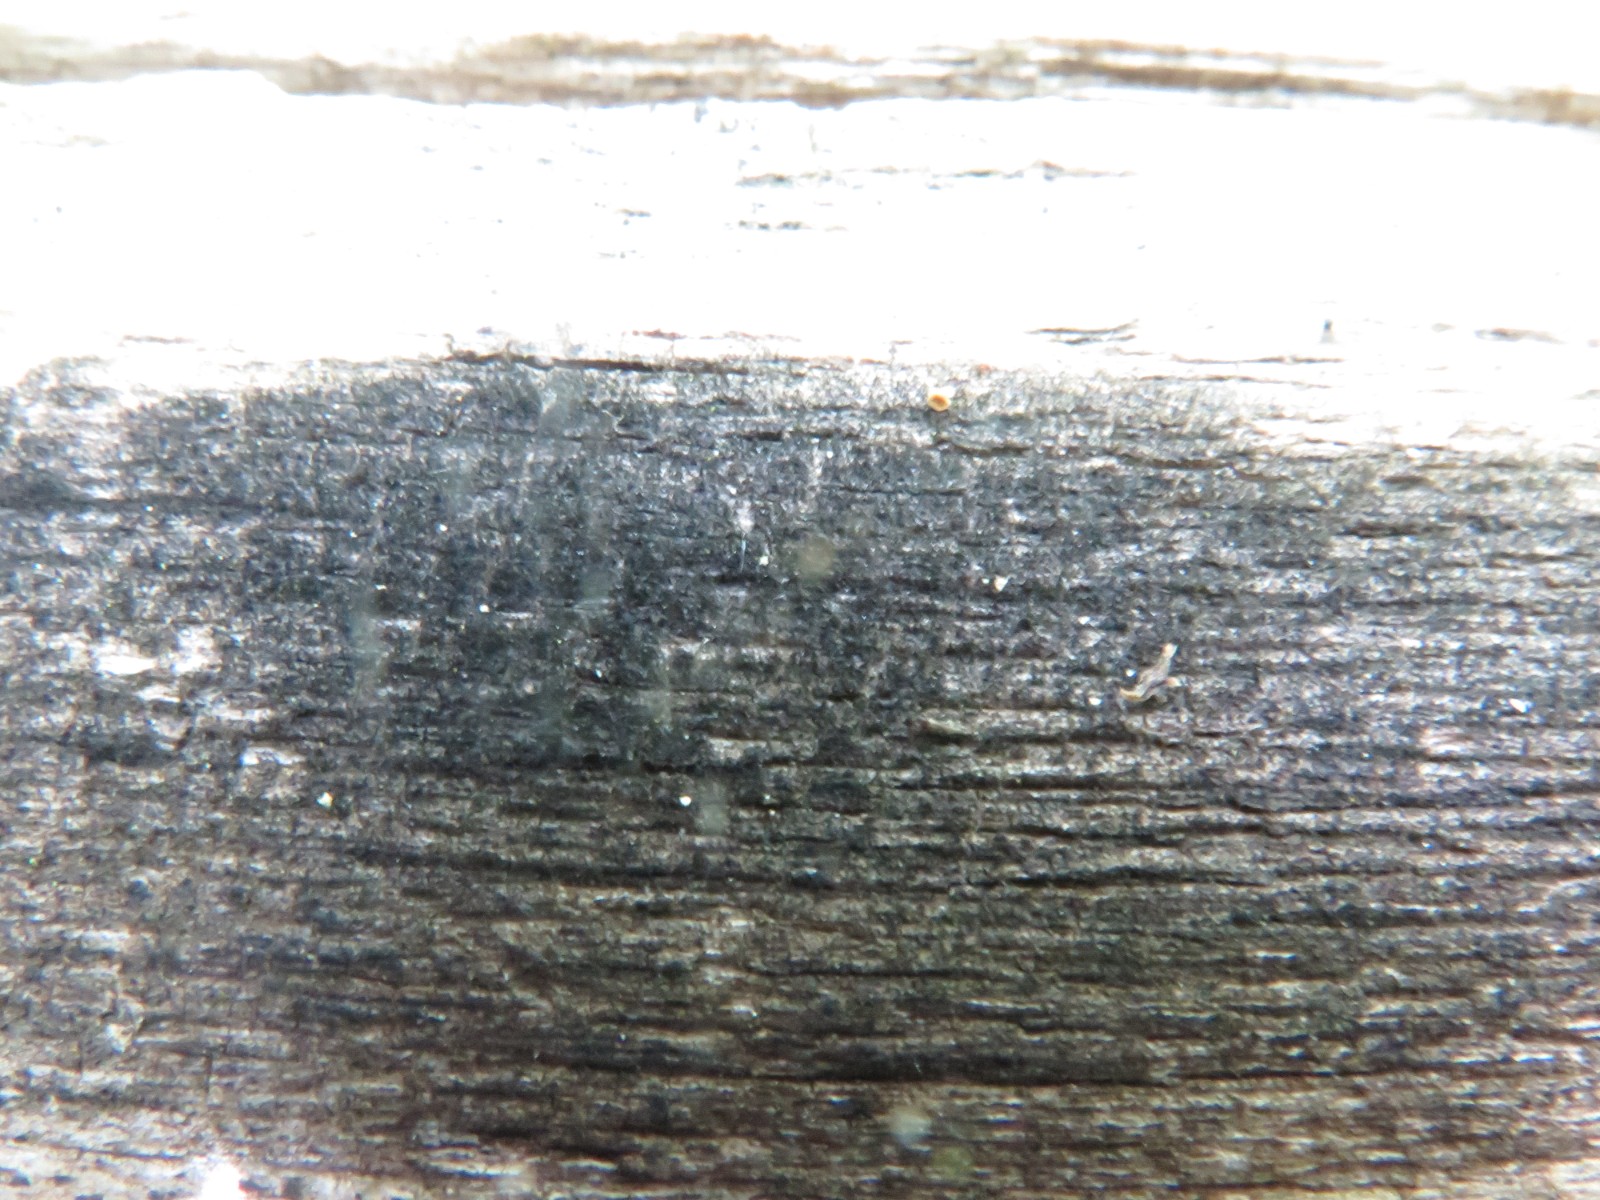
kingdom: Fungi
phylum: Ascomycota
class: Dothideomycetes
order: Pleosporales
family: Massarinaceae
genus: Helminthosporium
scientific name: Helminthosporium velutinum
